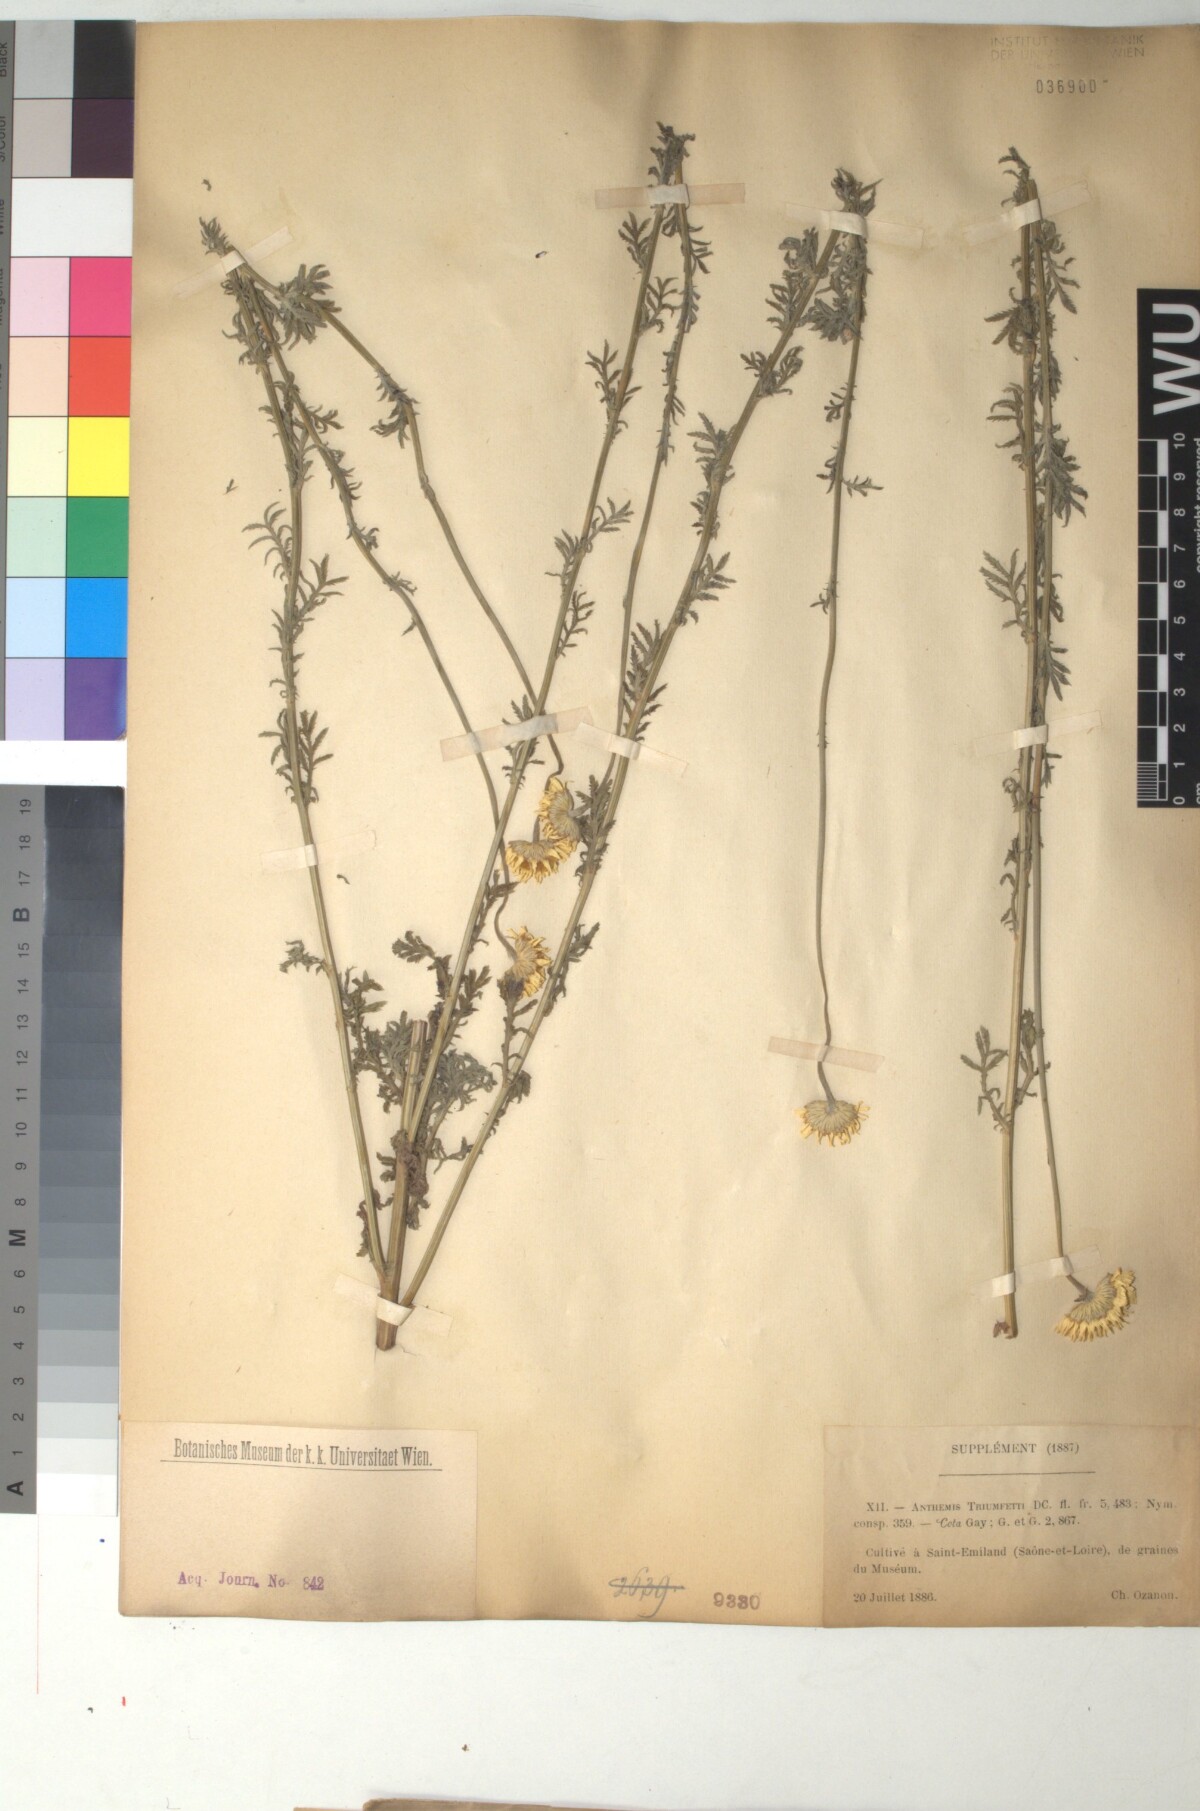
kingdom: Plantae
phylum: Tracheophyta
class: Magnoliopsida
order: Asterales
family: Asteraceae
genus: Cota
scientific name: Cota triumfetti
